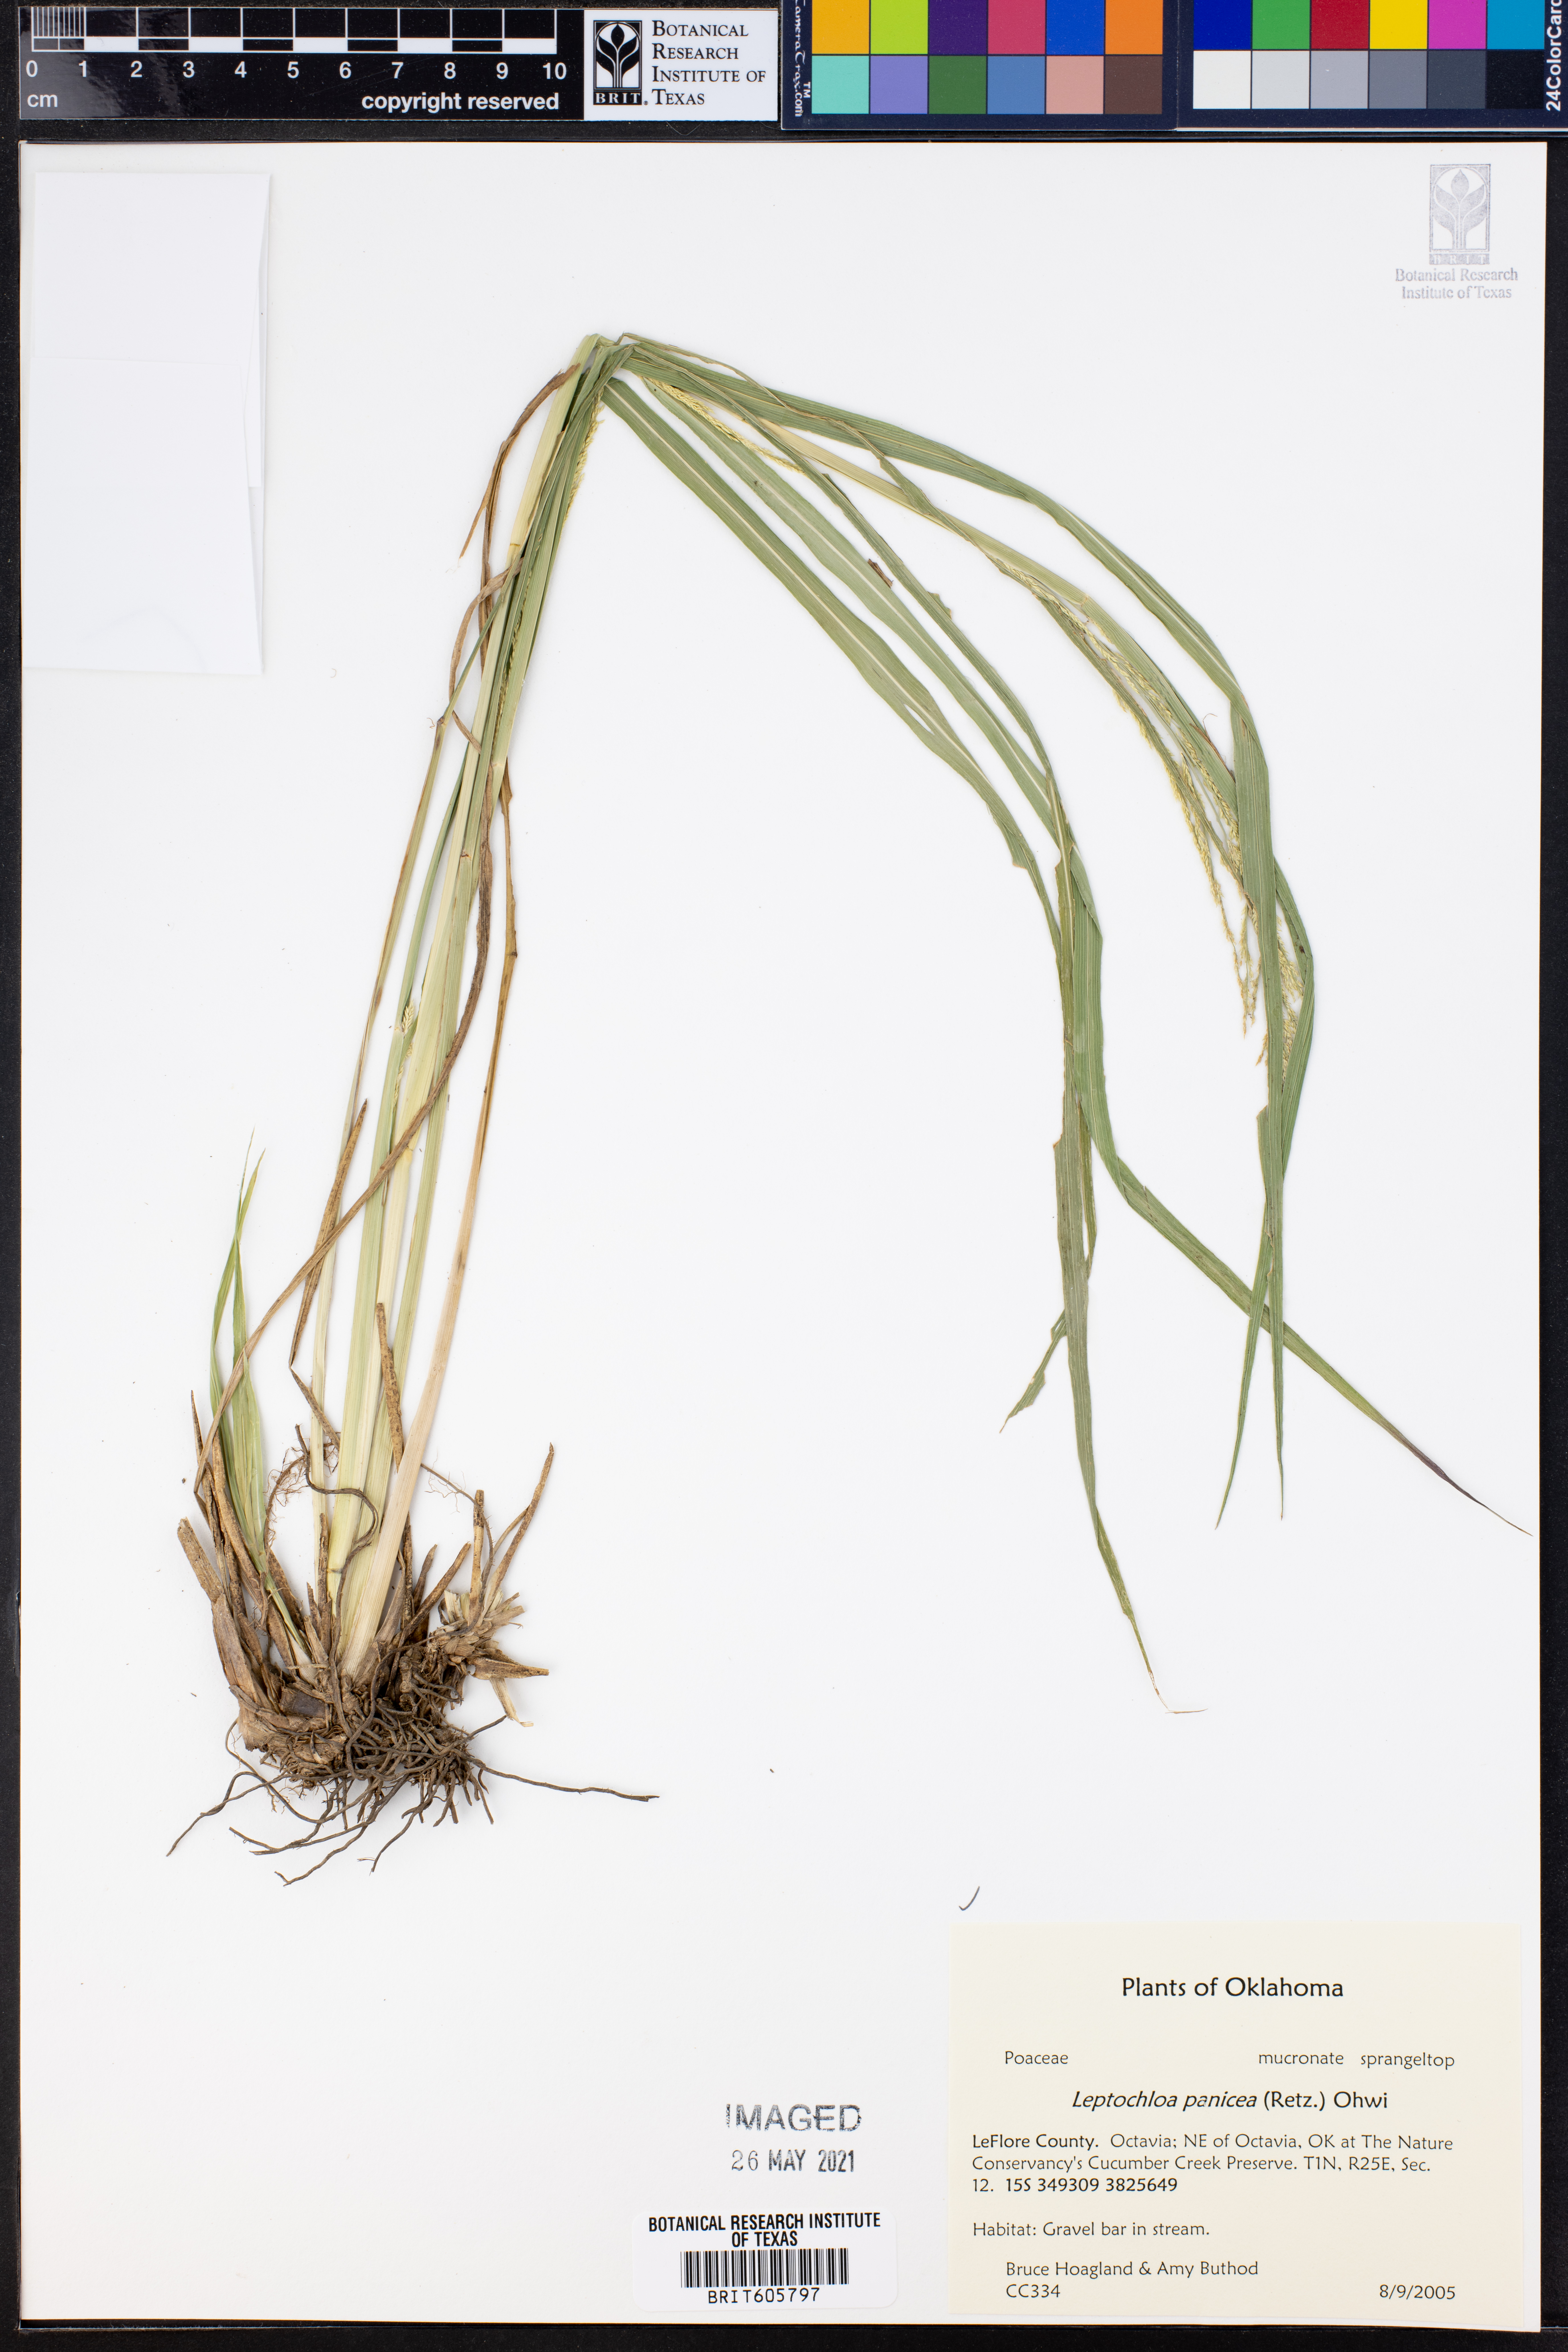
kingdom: Plantae
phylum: Tracheophyta
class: Liliopsida
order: Poales
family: Poaceae
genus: Leptochloa
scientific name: Leptochloa panicea
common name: Mucronate sprangletop
